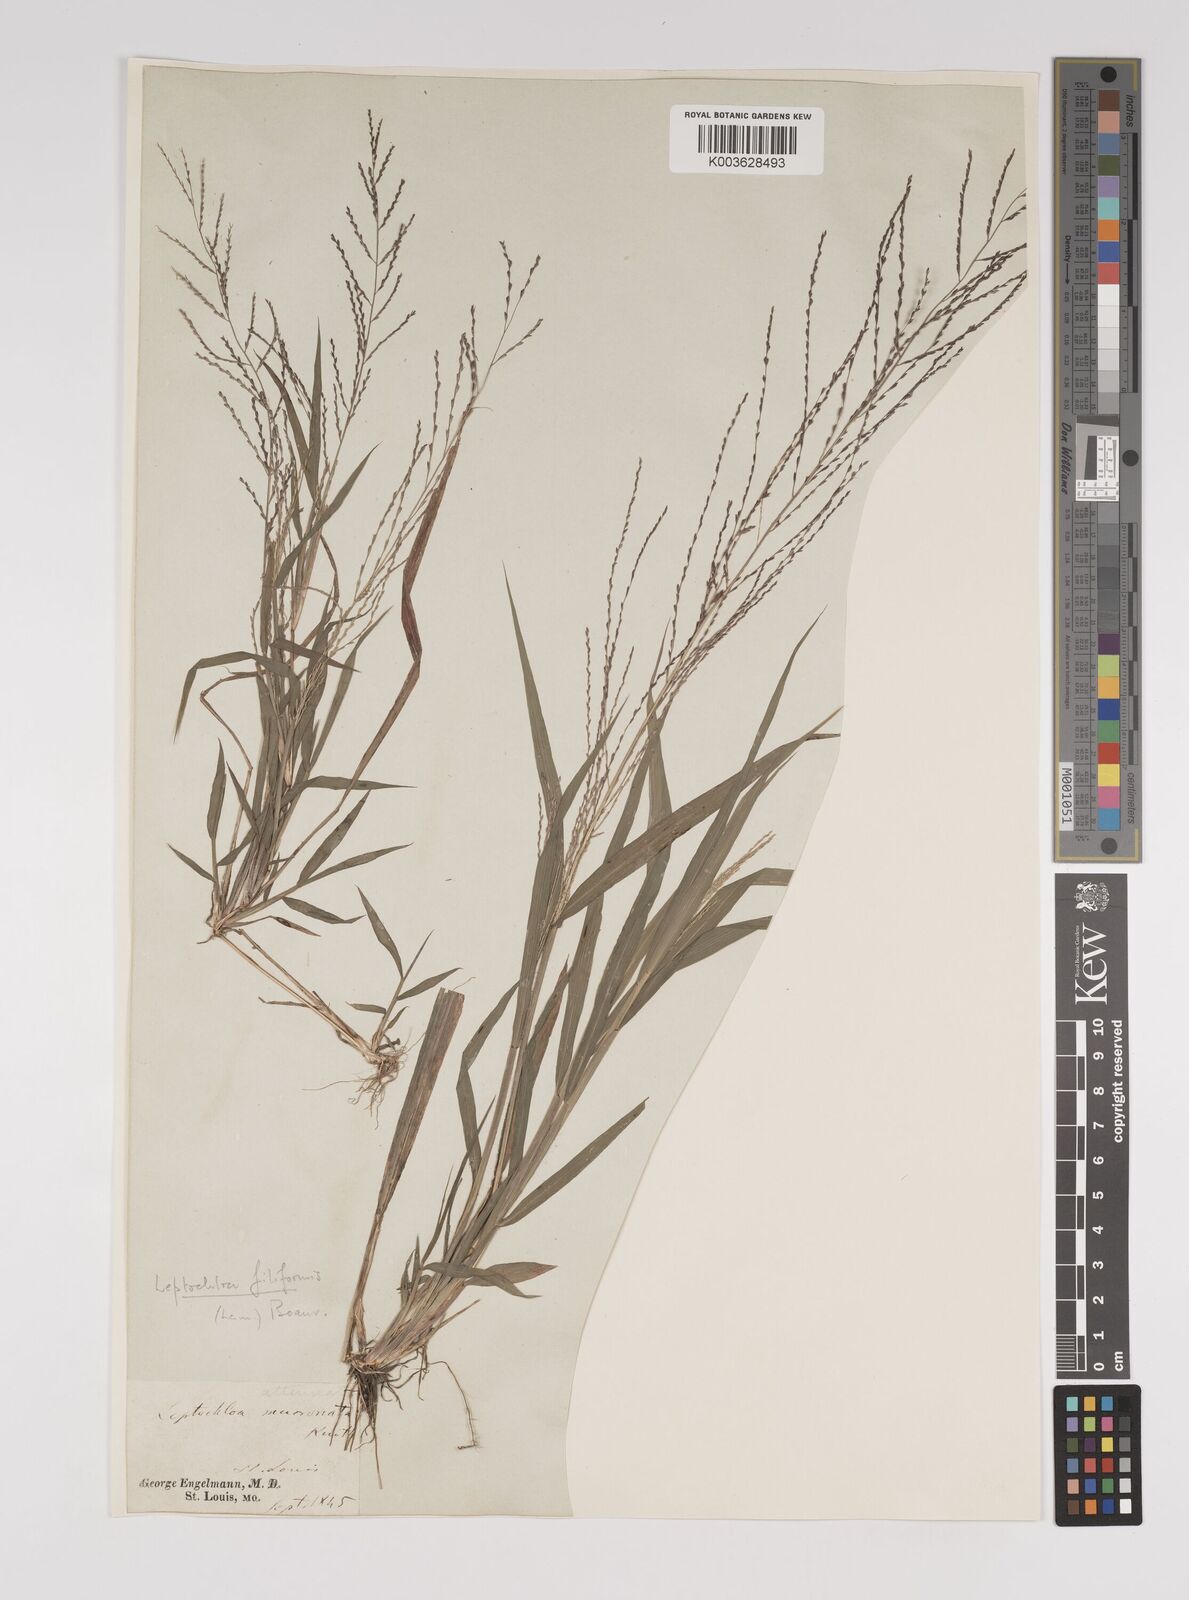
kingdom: Plantae
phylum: Tracheophyta
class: Liliopsida
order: Poales
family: Poaceae
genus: Leptochloa
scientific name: Leptochloa panicea
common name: Mucronate sprangletop
